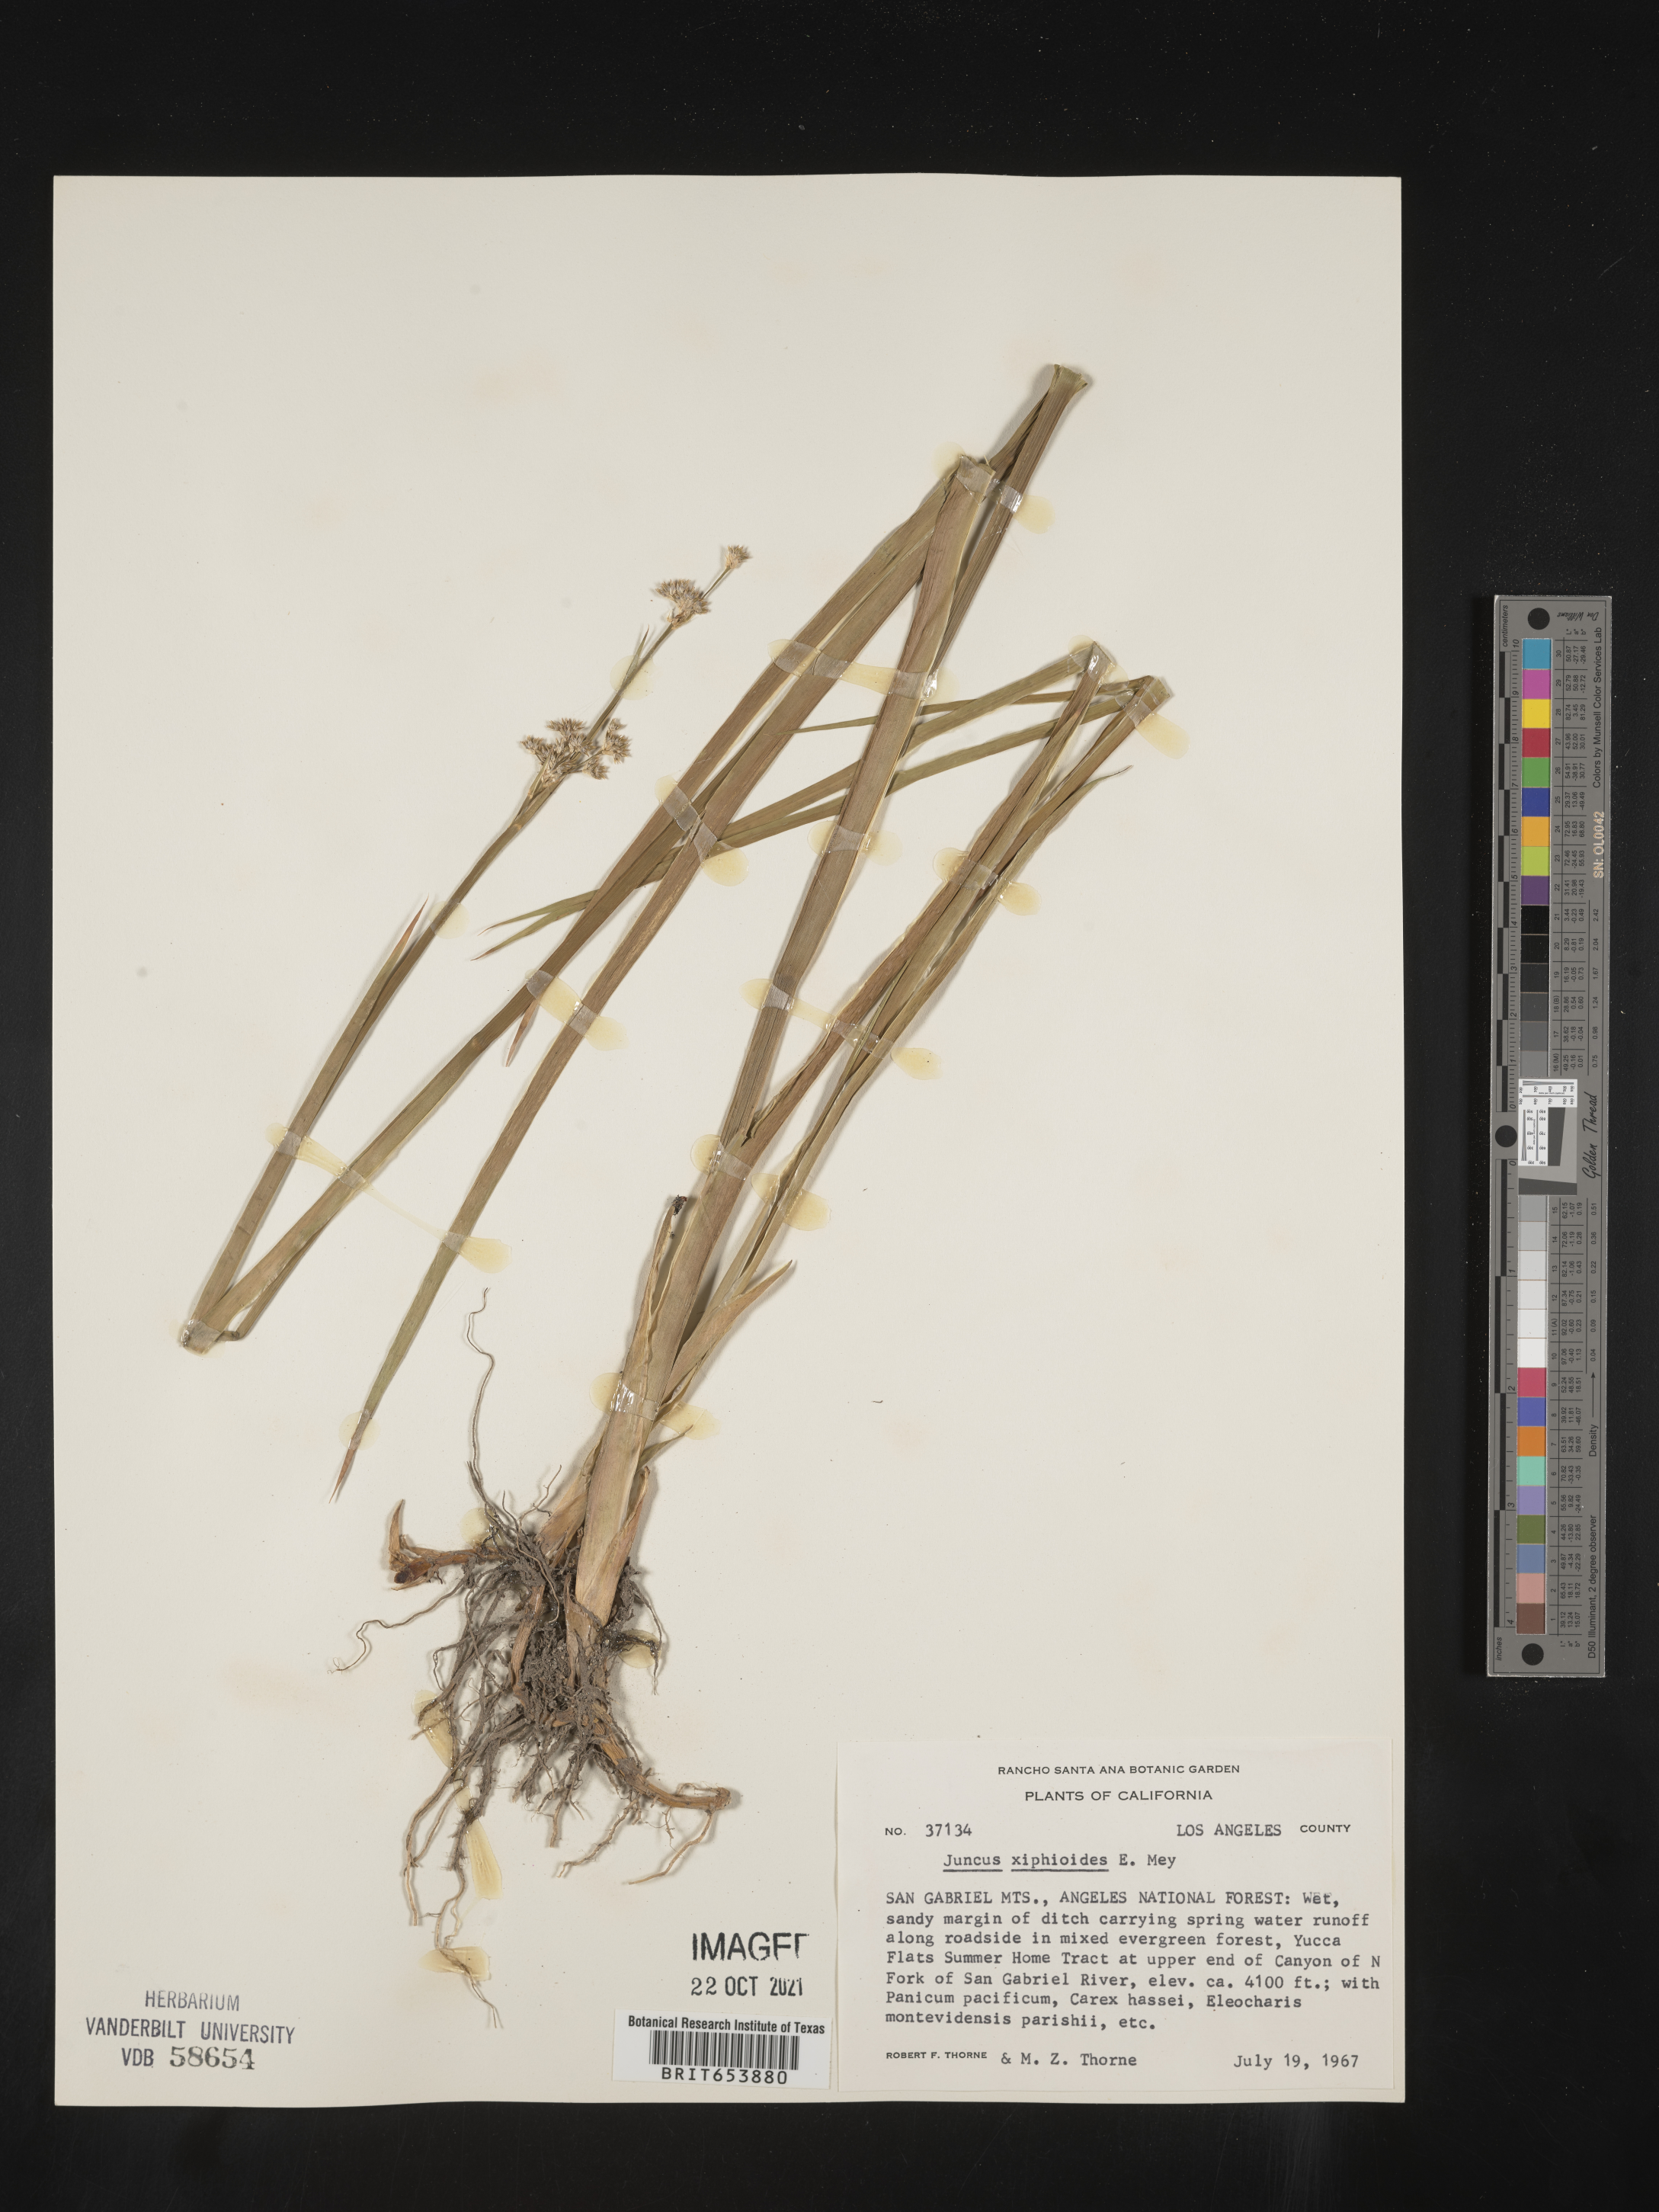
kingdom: Plantae
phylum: Tracheophyta
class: Liliopsida
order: Poales
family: Juncaceae
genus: Juncus
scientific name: Juncus xiphioides
